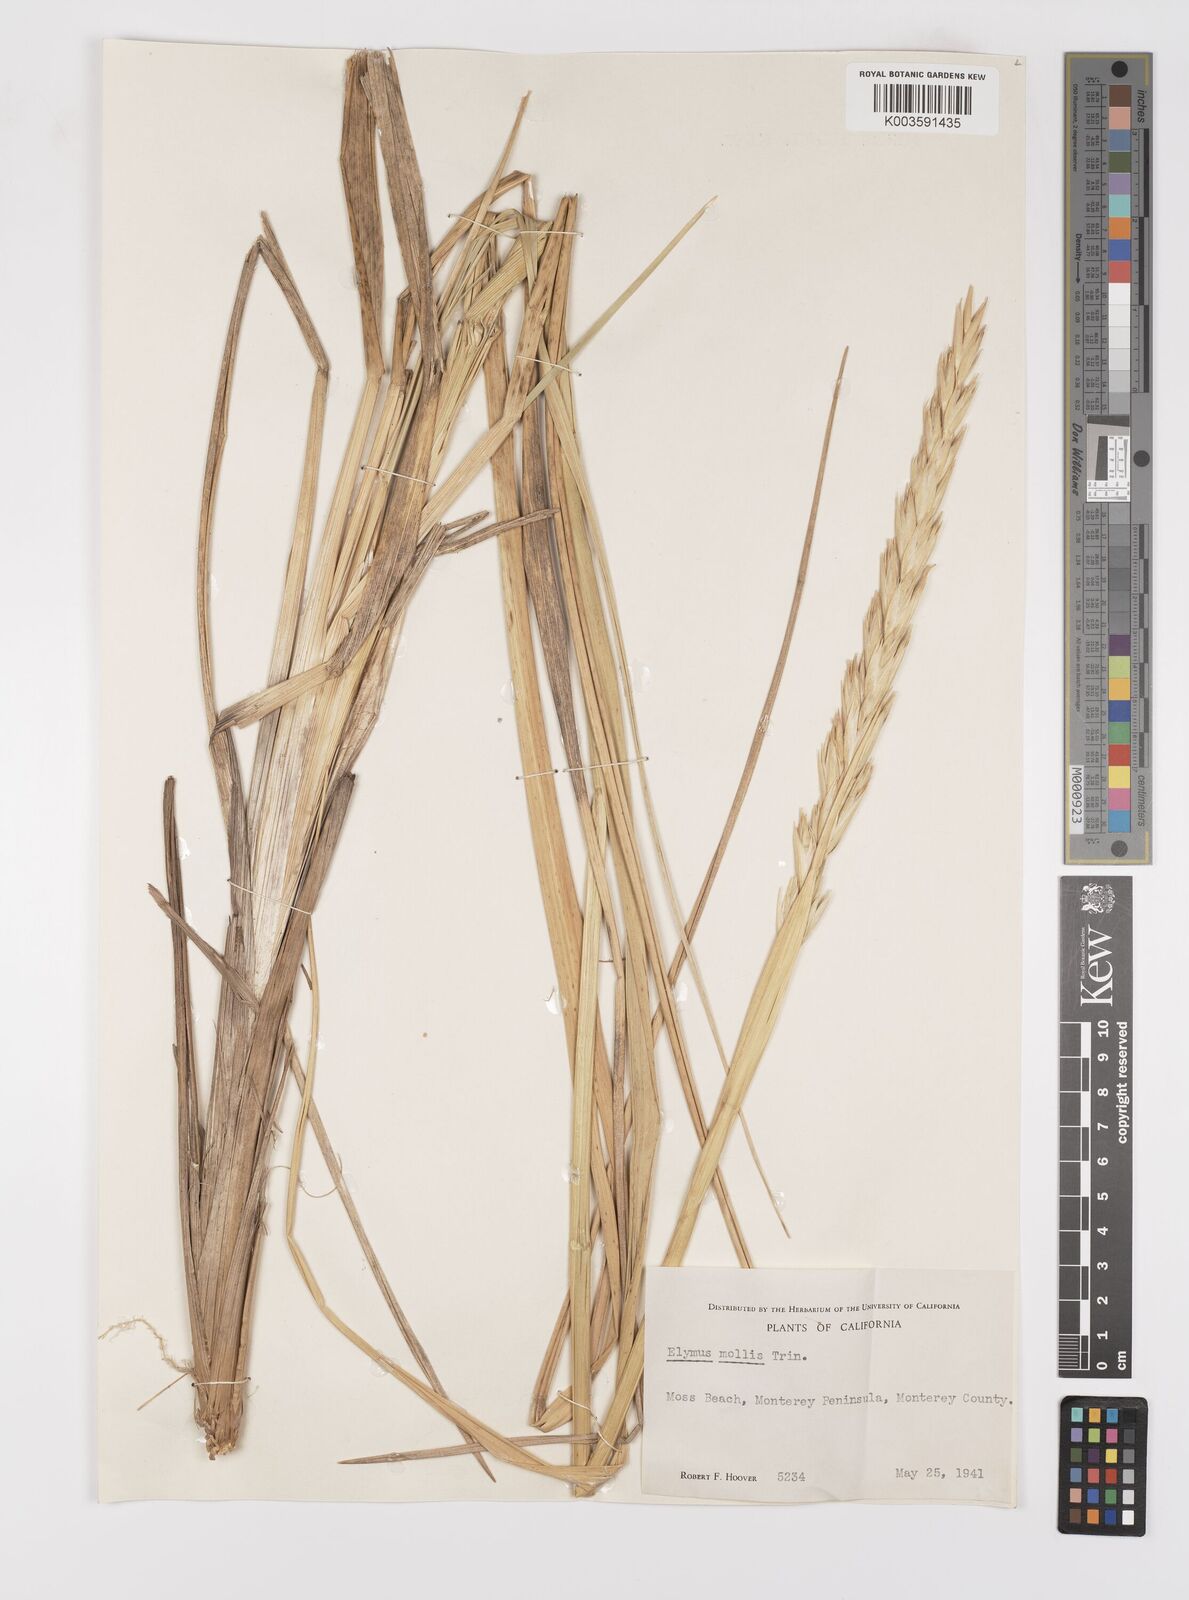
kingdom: Plantae
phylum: Tracheophyta
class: Liliopsida
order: Poales
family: Poaceae
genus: Leymus
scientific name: Leymus mollis
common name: American dune grass
